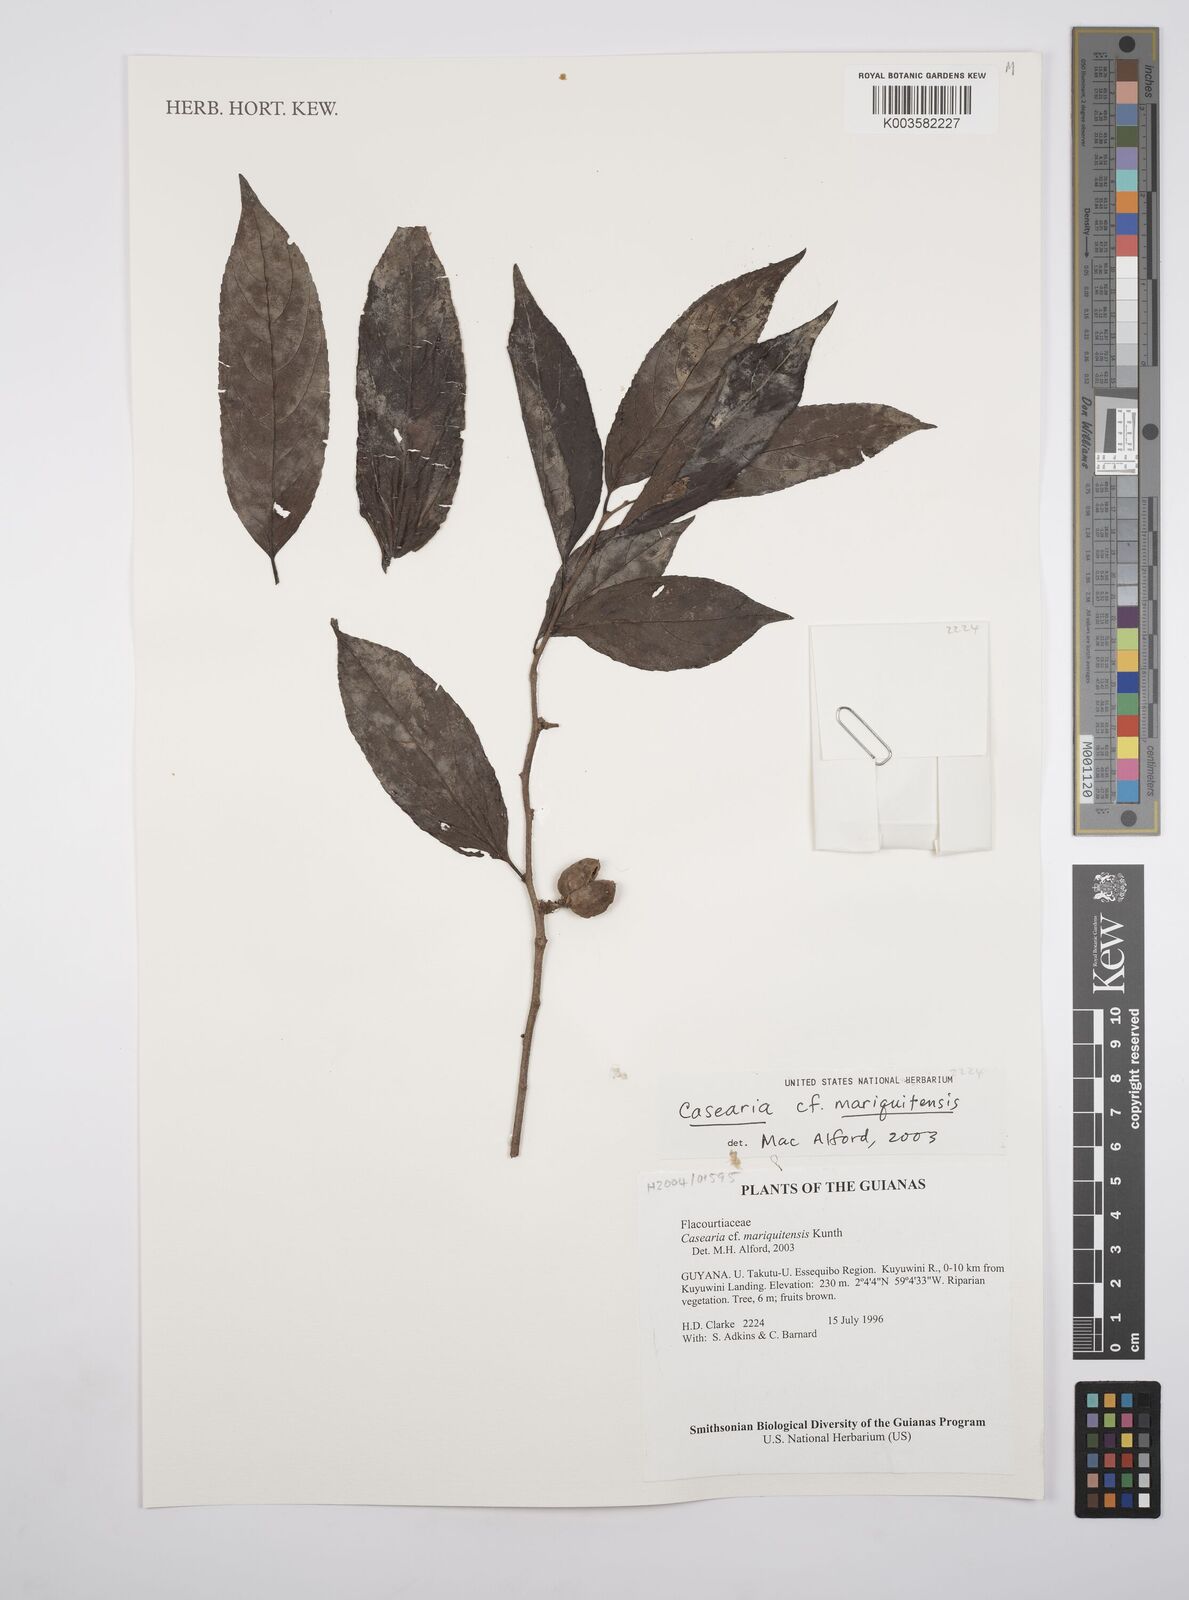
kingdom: Plantae
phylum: Tracheophyta
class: Magnoliopsida
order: Malpighiales
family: Salicaceae
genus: Casearia
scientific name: Casearia mariquitensis
